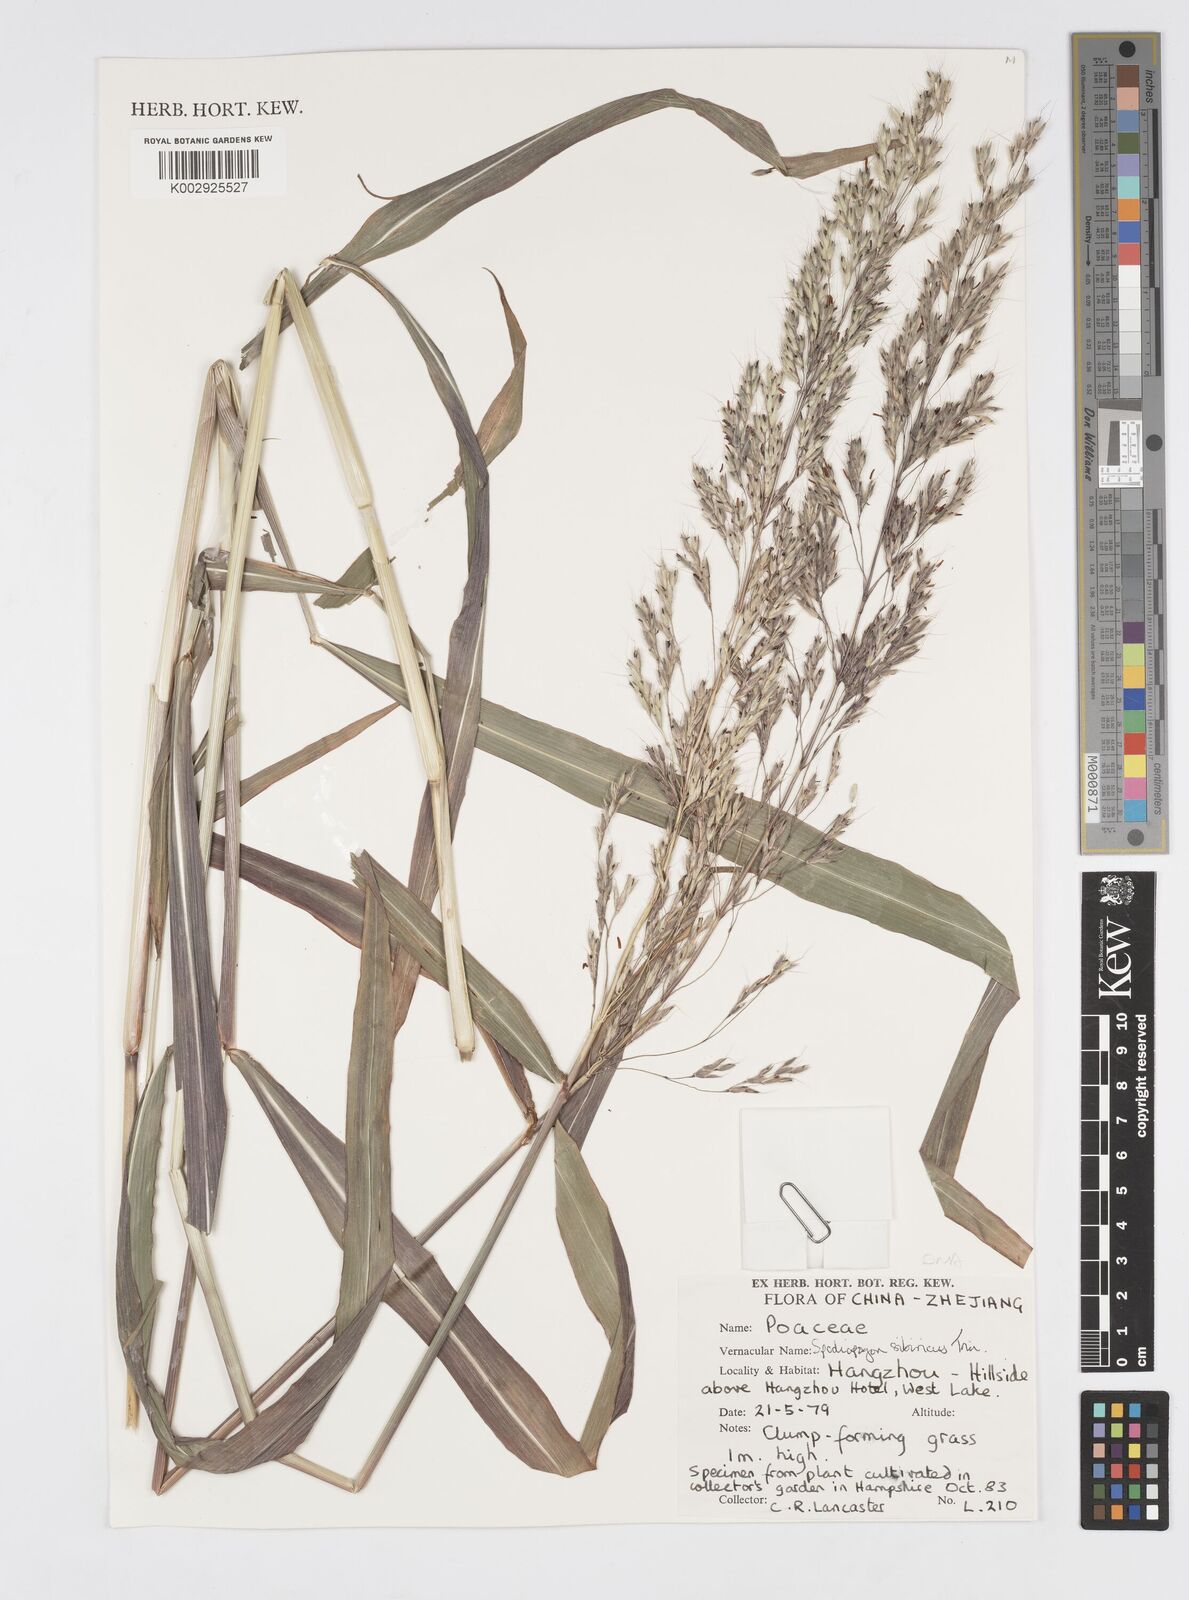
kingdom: Plantae
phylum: Tracheophyta
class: Liliopsida
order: Poales
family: Poaceae
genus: Spodiopogon
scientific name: Spodiopogon sibiricus
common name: Siberian graybeard
